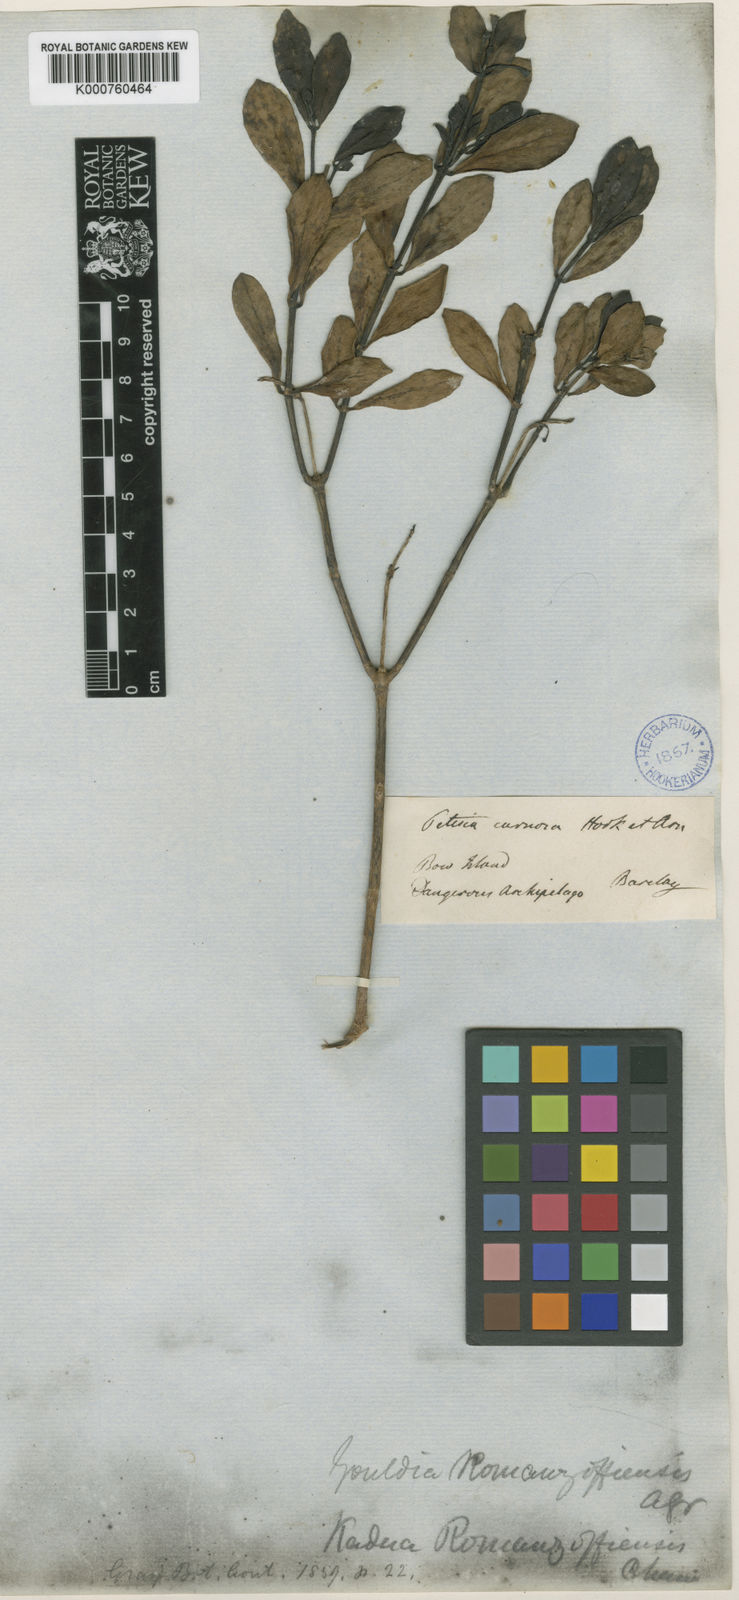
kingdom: Plantae
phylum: Tracheophyta
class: Magnoliopsida
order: Gentianales
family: Rubiaceae
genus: Kadua
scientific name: Kadua romanzoffiensis
